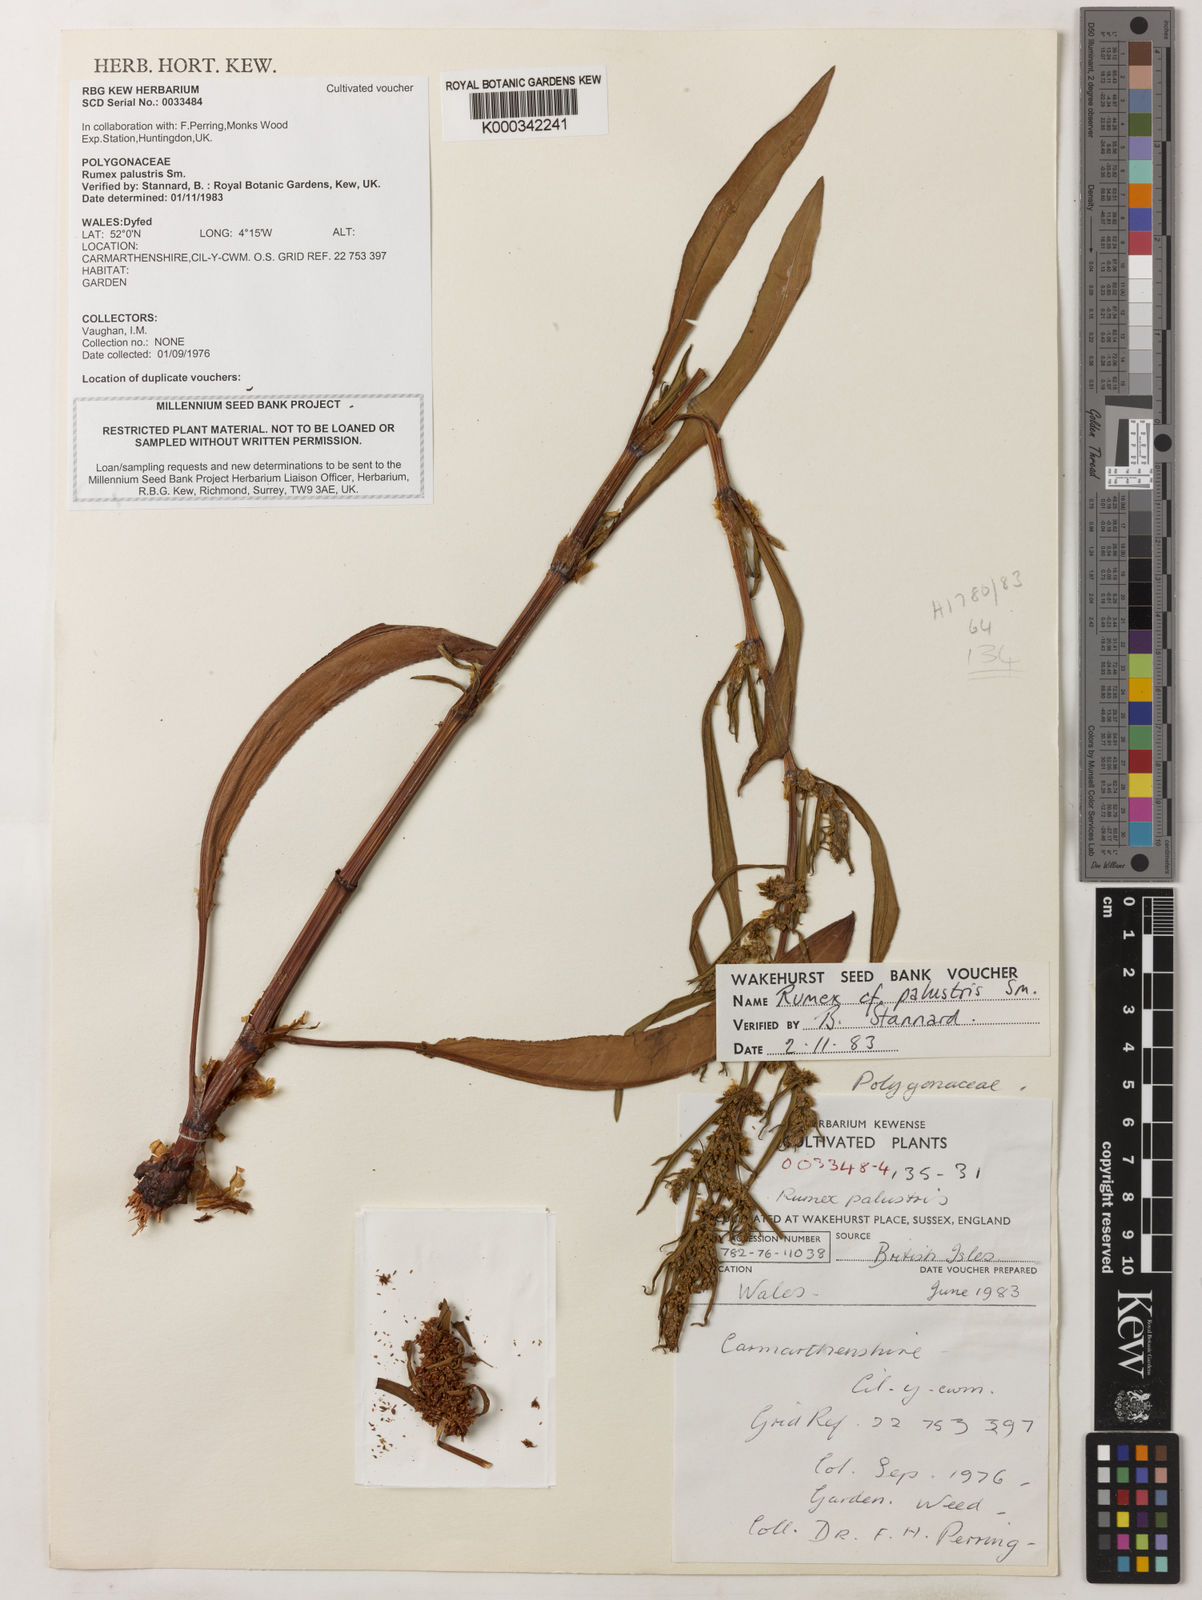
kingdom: Plantae
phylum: Tracheophyta
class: Magnoliopsida
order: Caryophyllales
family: Polygonaceae
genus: Rumex
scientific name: Rumex palustris
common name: Marsh dock
